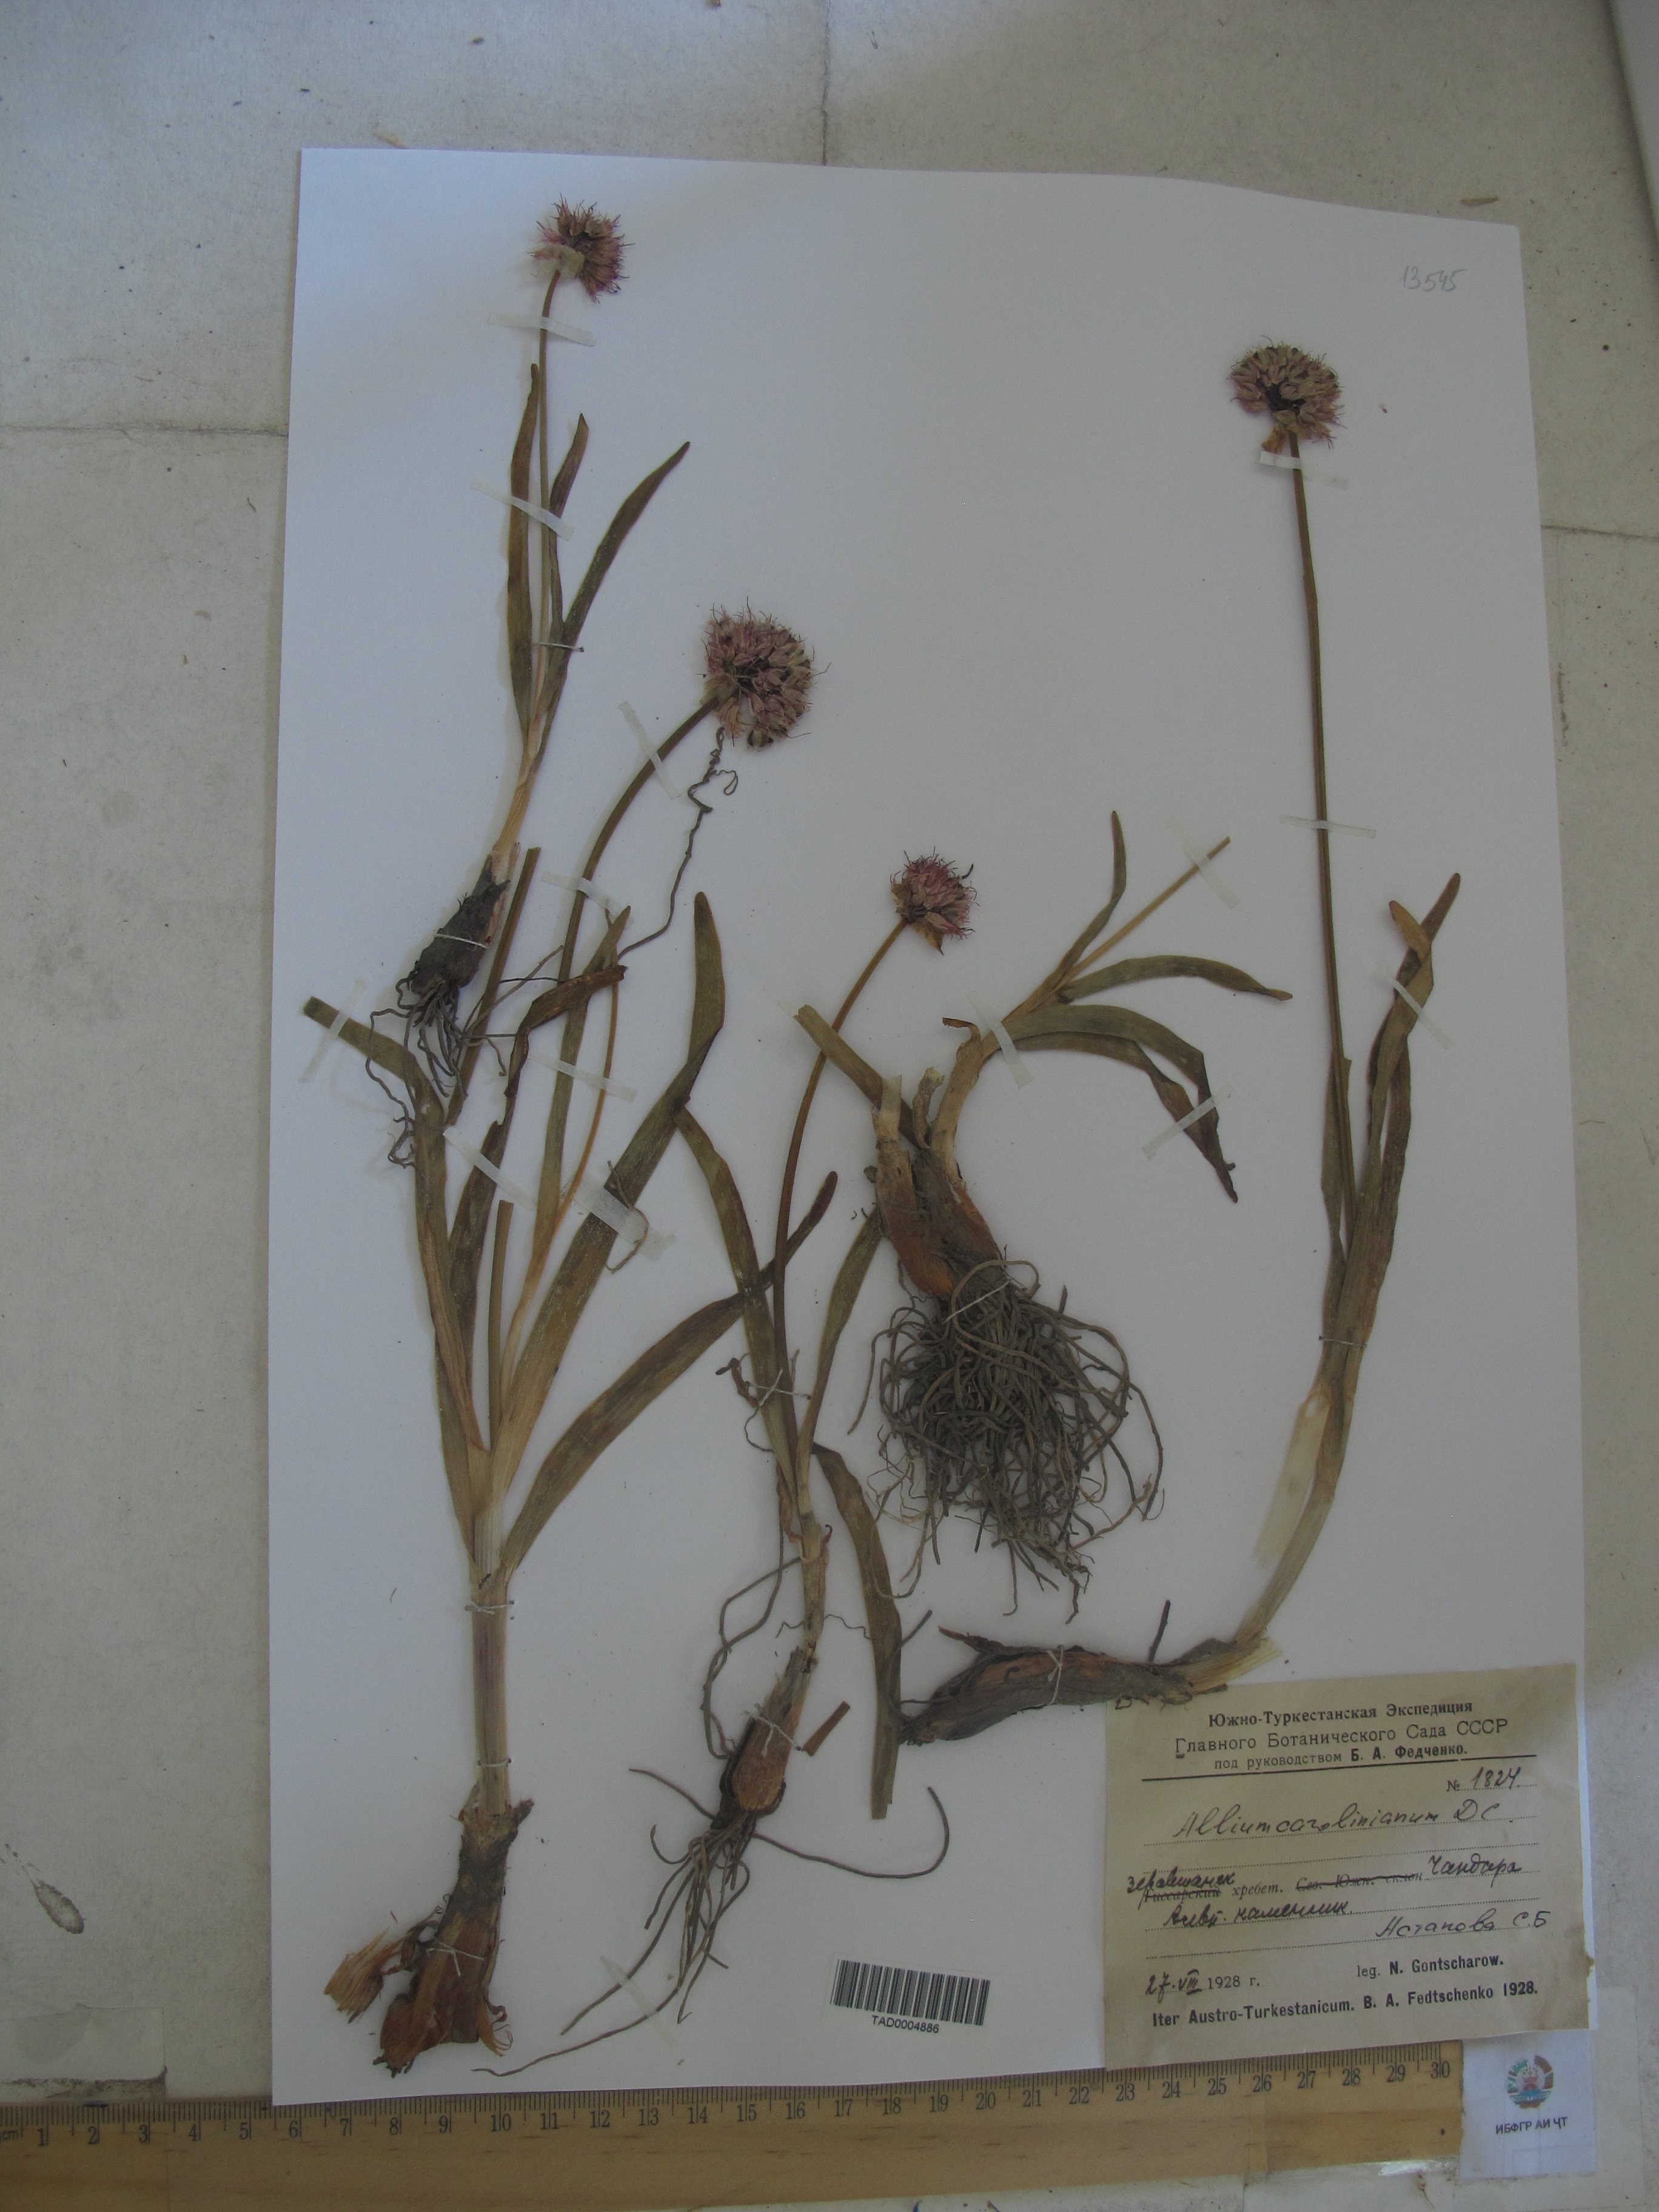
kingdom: Plantae
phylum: Tracheophyta
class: Liliopsida
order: Asparagales
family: Amaryllidaceae
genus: Allium
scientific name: Allium carolinianum
